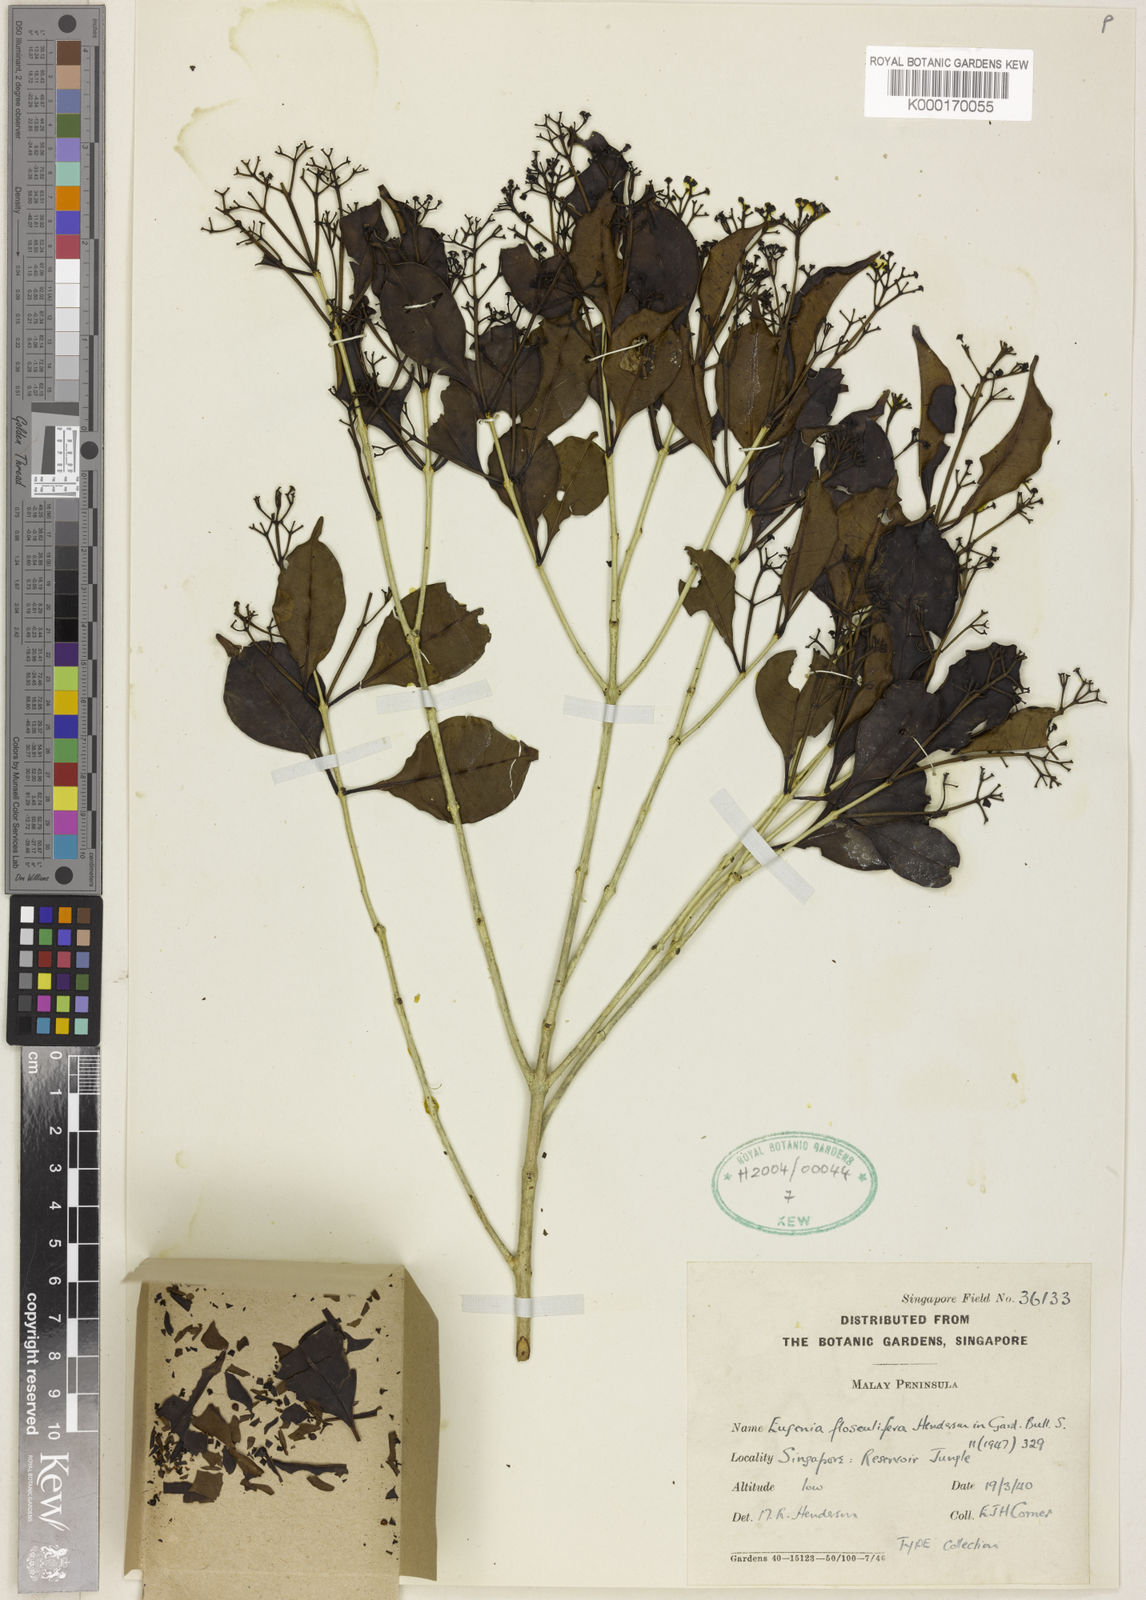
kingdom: Plantae
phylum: Tracheophyta
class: Magnoliopsida
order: Myrtales
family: Myrtaceae
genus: Syzygium
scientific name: Syzygium flosculiferum
